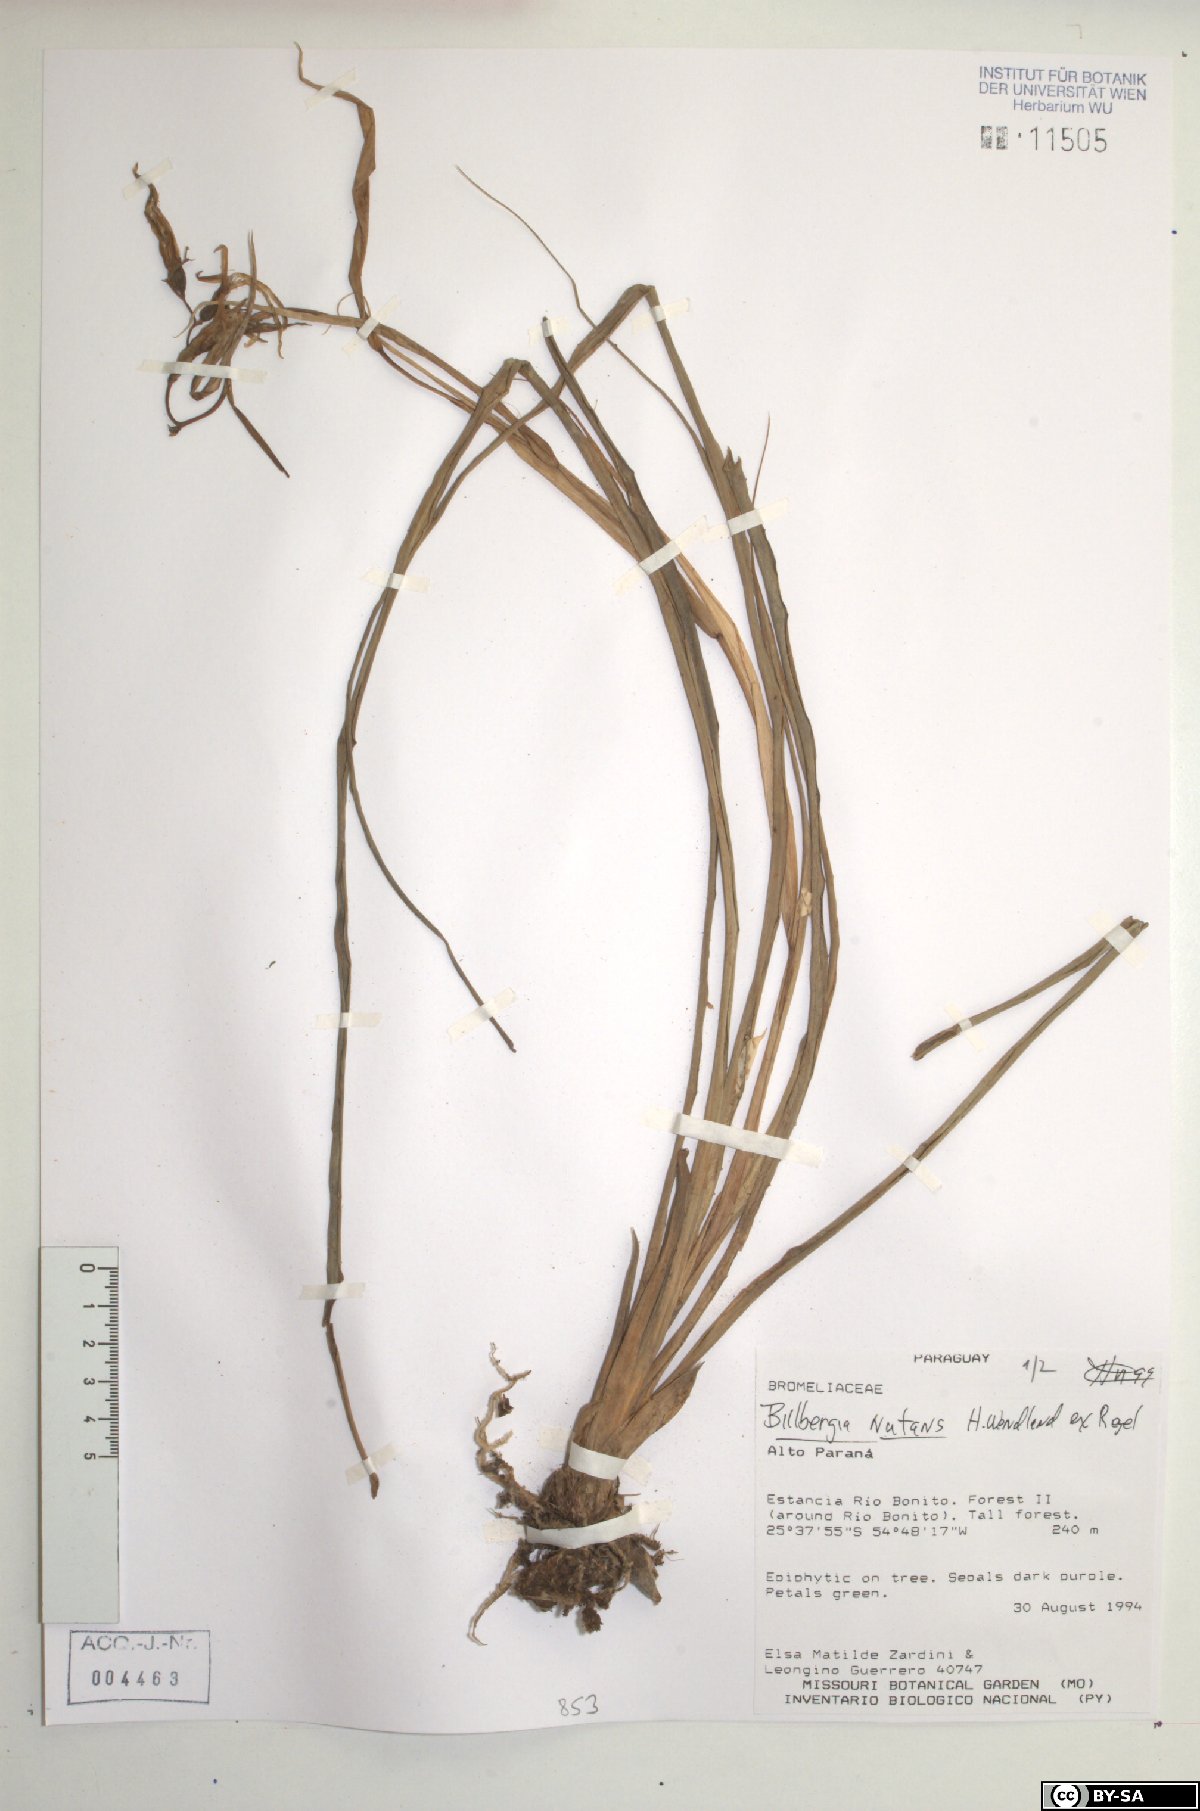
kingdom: Plantae
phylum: Tracheophyta
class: Liliopsida
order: Poales
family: Bromeliaceae
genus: Billbergia
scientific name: Billbergia nutans
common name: Friendship-plant
